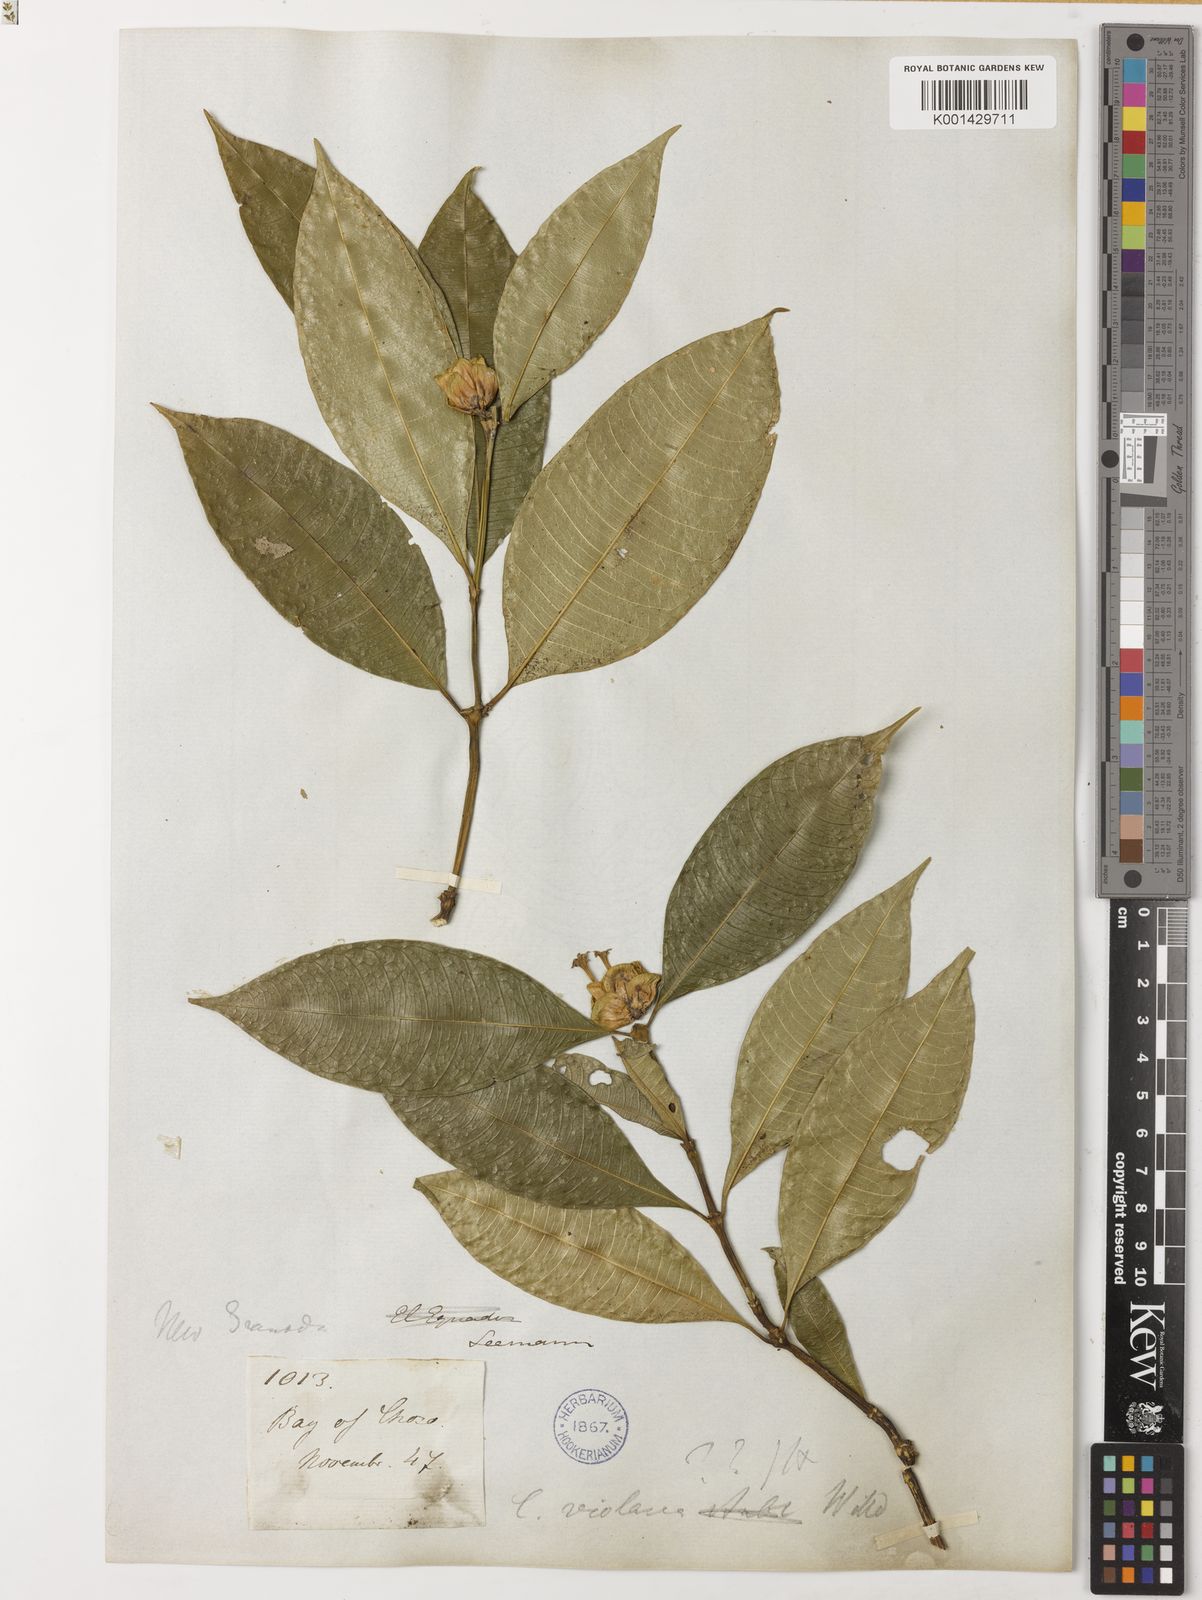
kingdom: Plantae
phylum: Tracheophyta
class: Magnoliopsida
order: Gentianales
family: Rubiaceae
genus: Palicourea
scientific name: Palicourea apoda
